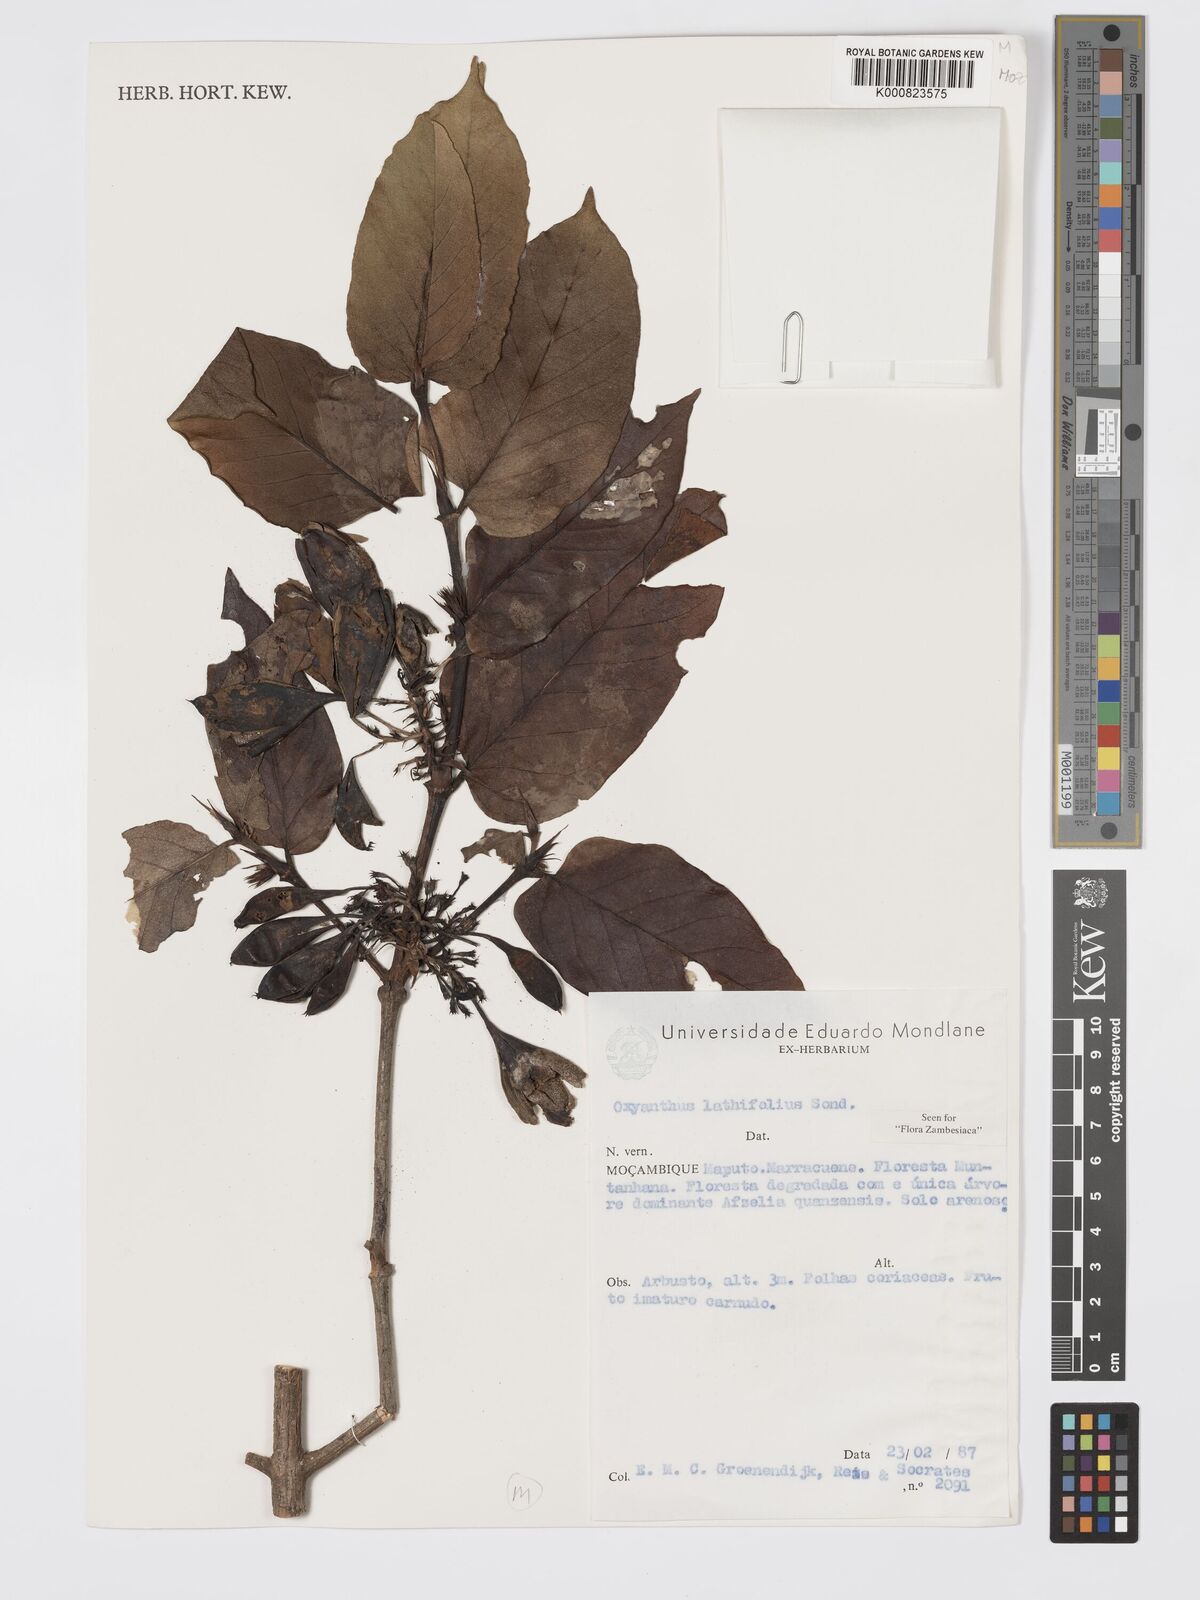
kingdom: Plantae
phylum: Tracheophyta
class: Magnoliopsida
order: Gentianales
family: Rubiaceae
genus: Oxyanthus
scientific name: Oxyanthus latifolius
